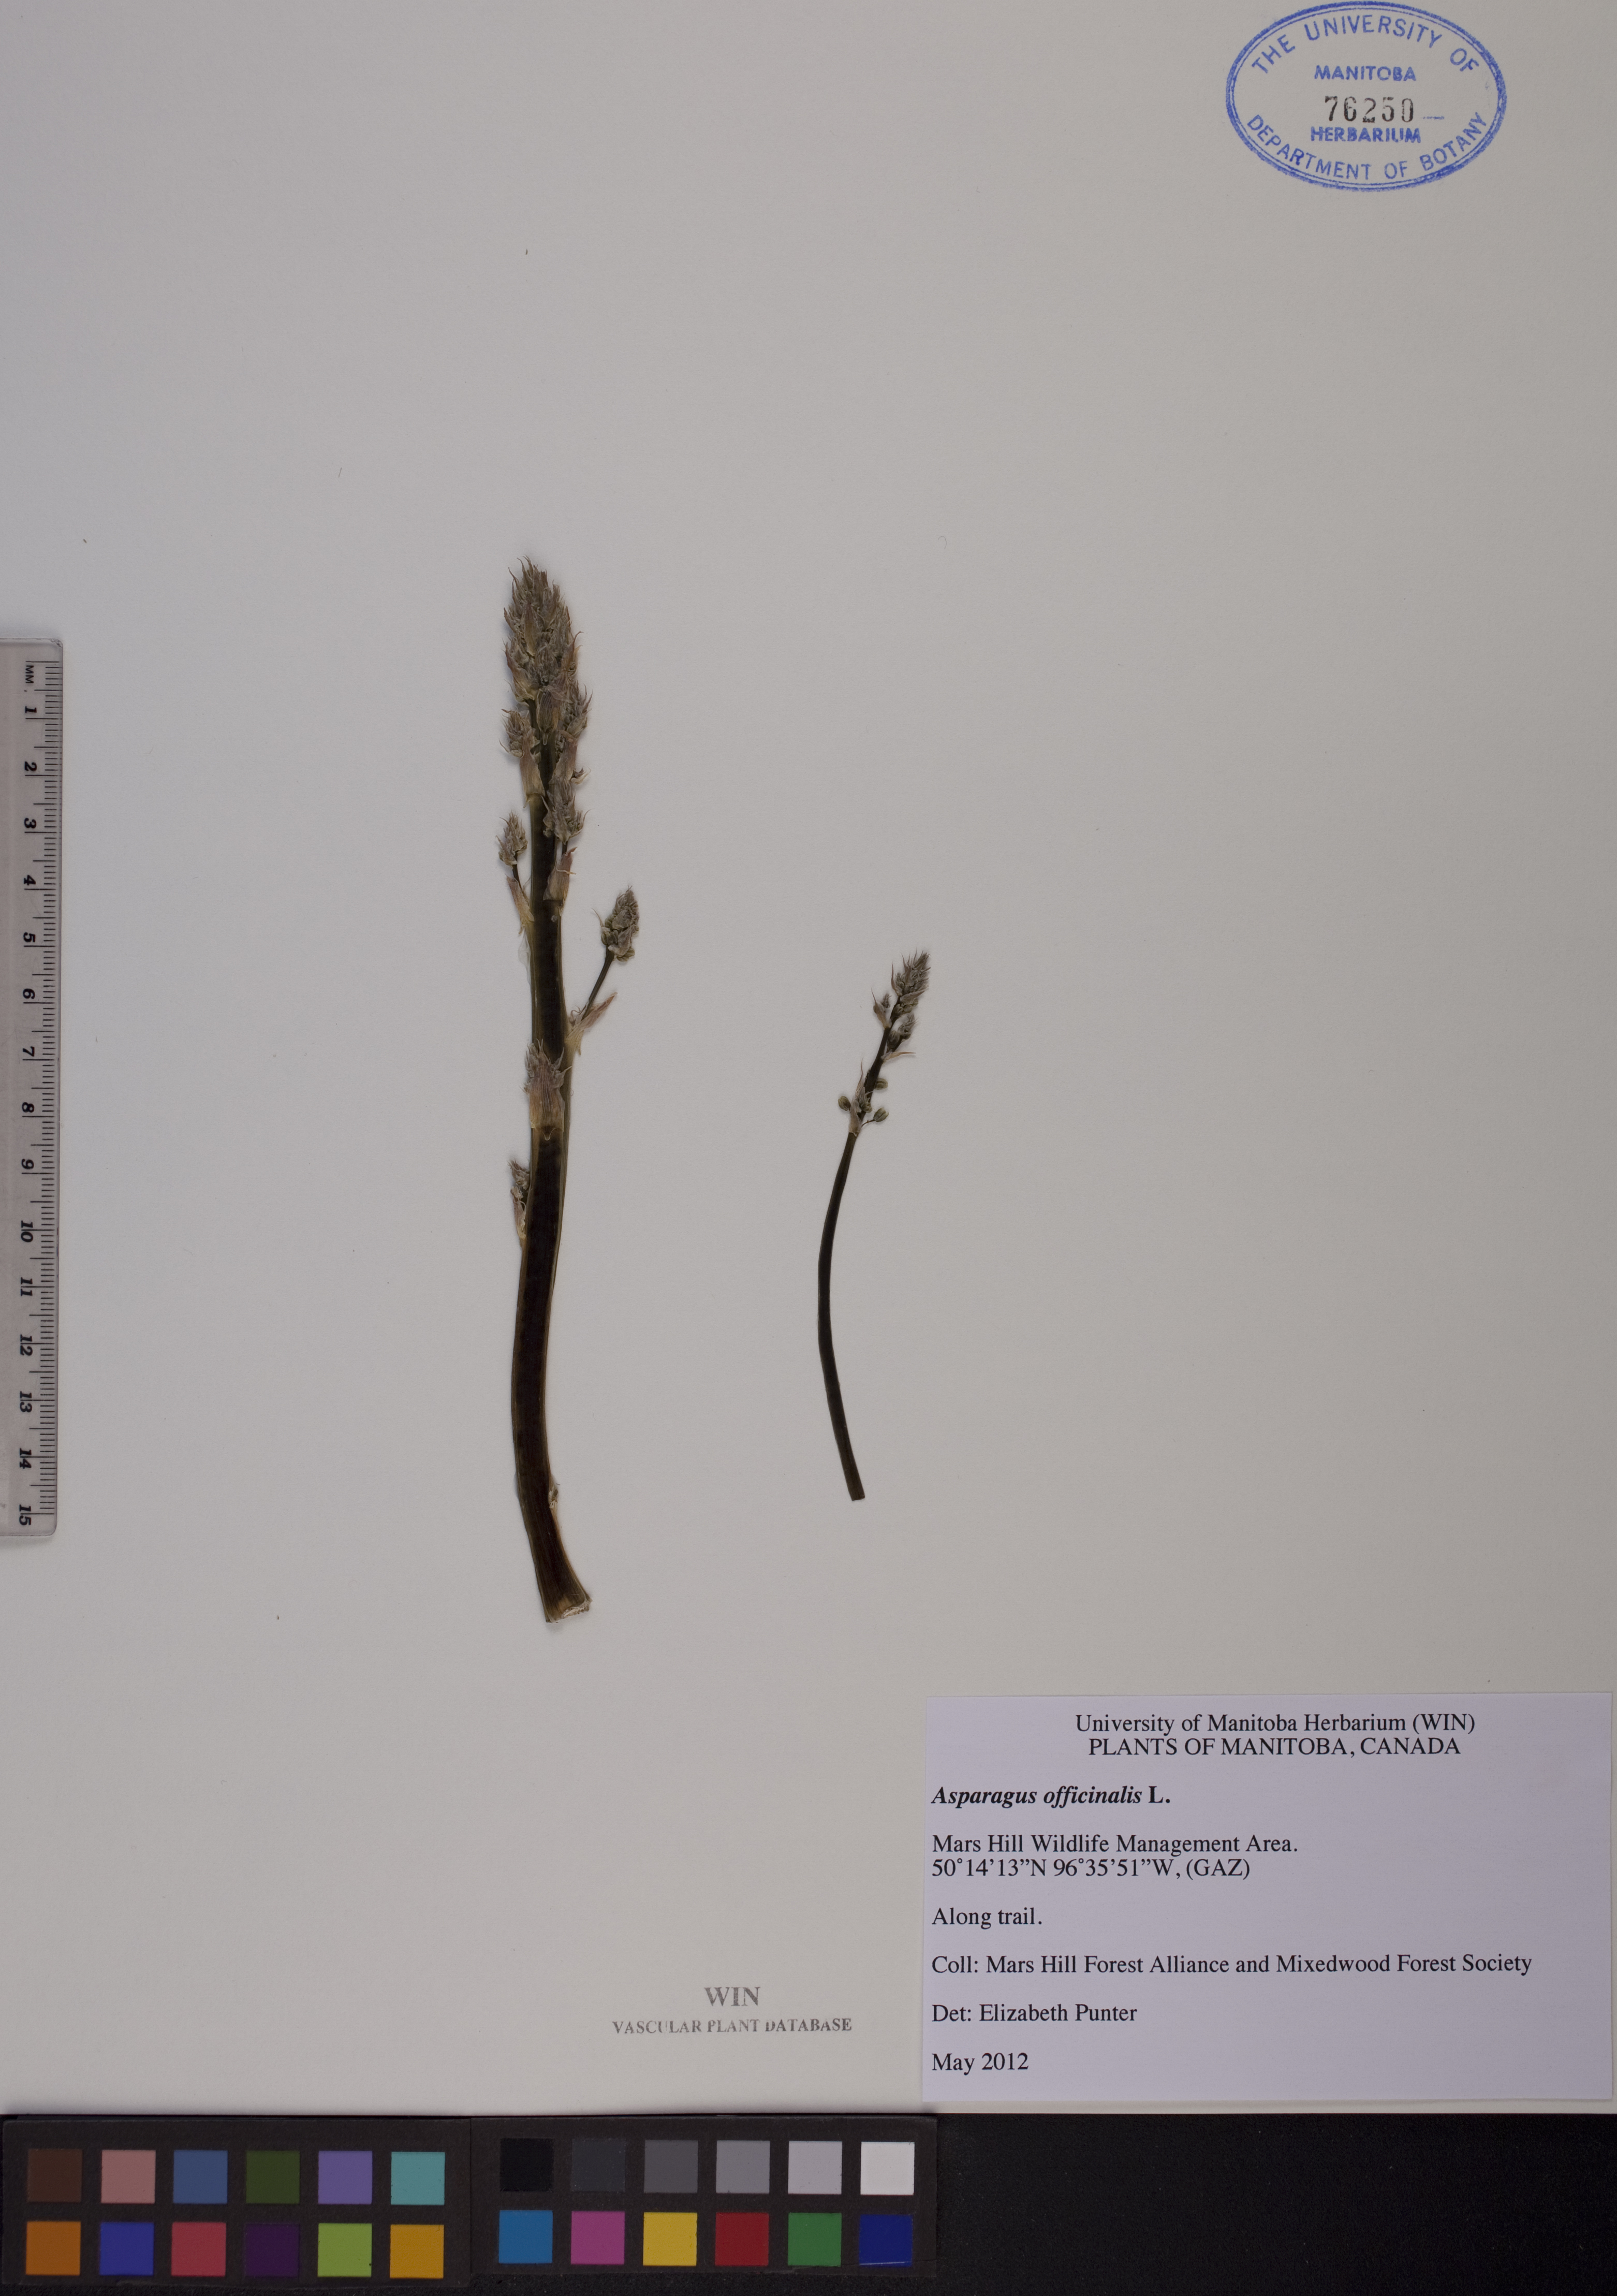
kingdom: Plantae
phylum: Tracheophyta
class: Liliopsida
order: Asparagales
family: Asparagaceae
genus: Asparagus
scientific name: Asparagus officinalis
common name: Garden asparagus
